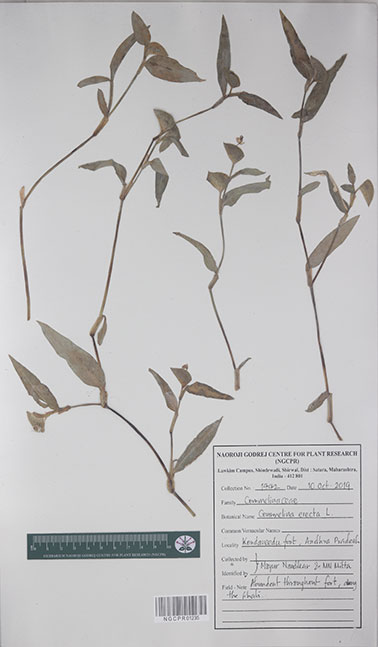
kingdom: Plantae
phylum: Tracheophyta
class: Liliopsida
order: Commelinales
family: Commelinaceae
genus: Commelina
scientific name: Commelina erecta
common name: Blousel blommetjie
